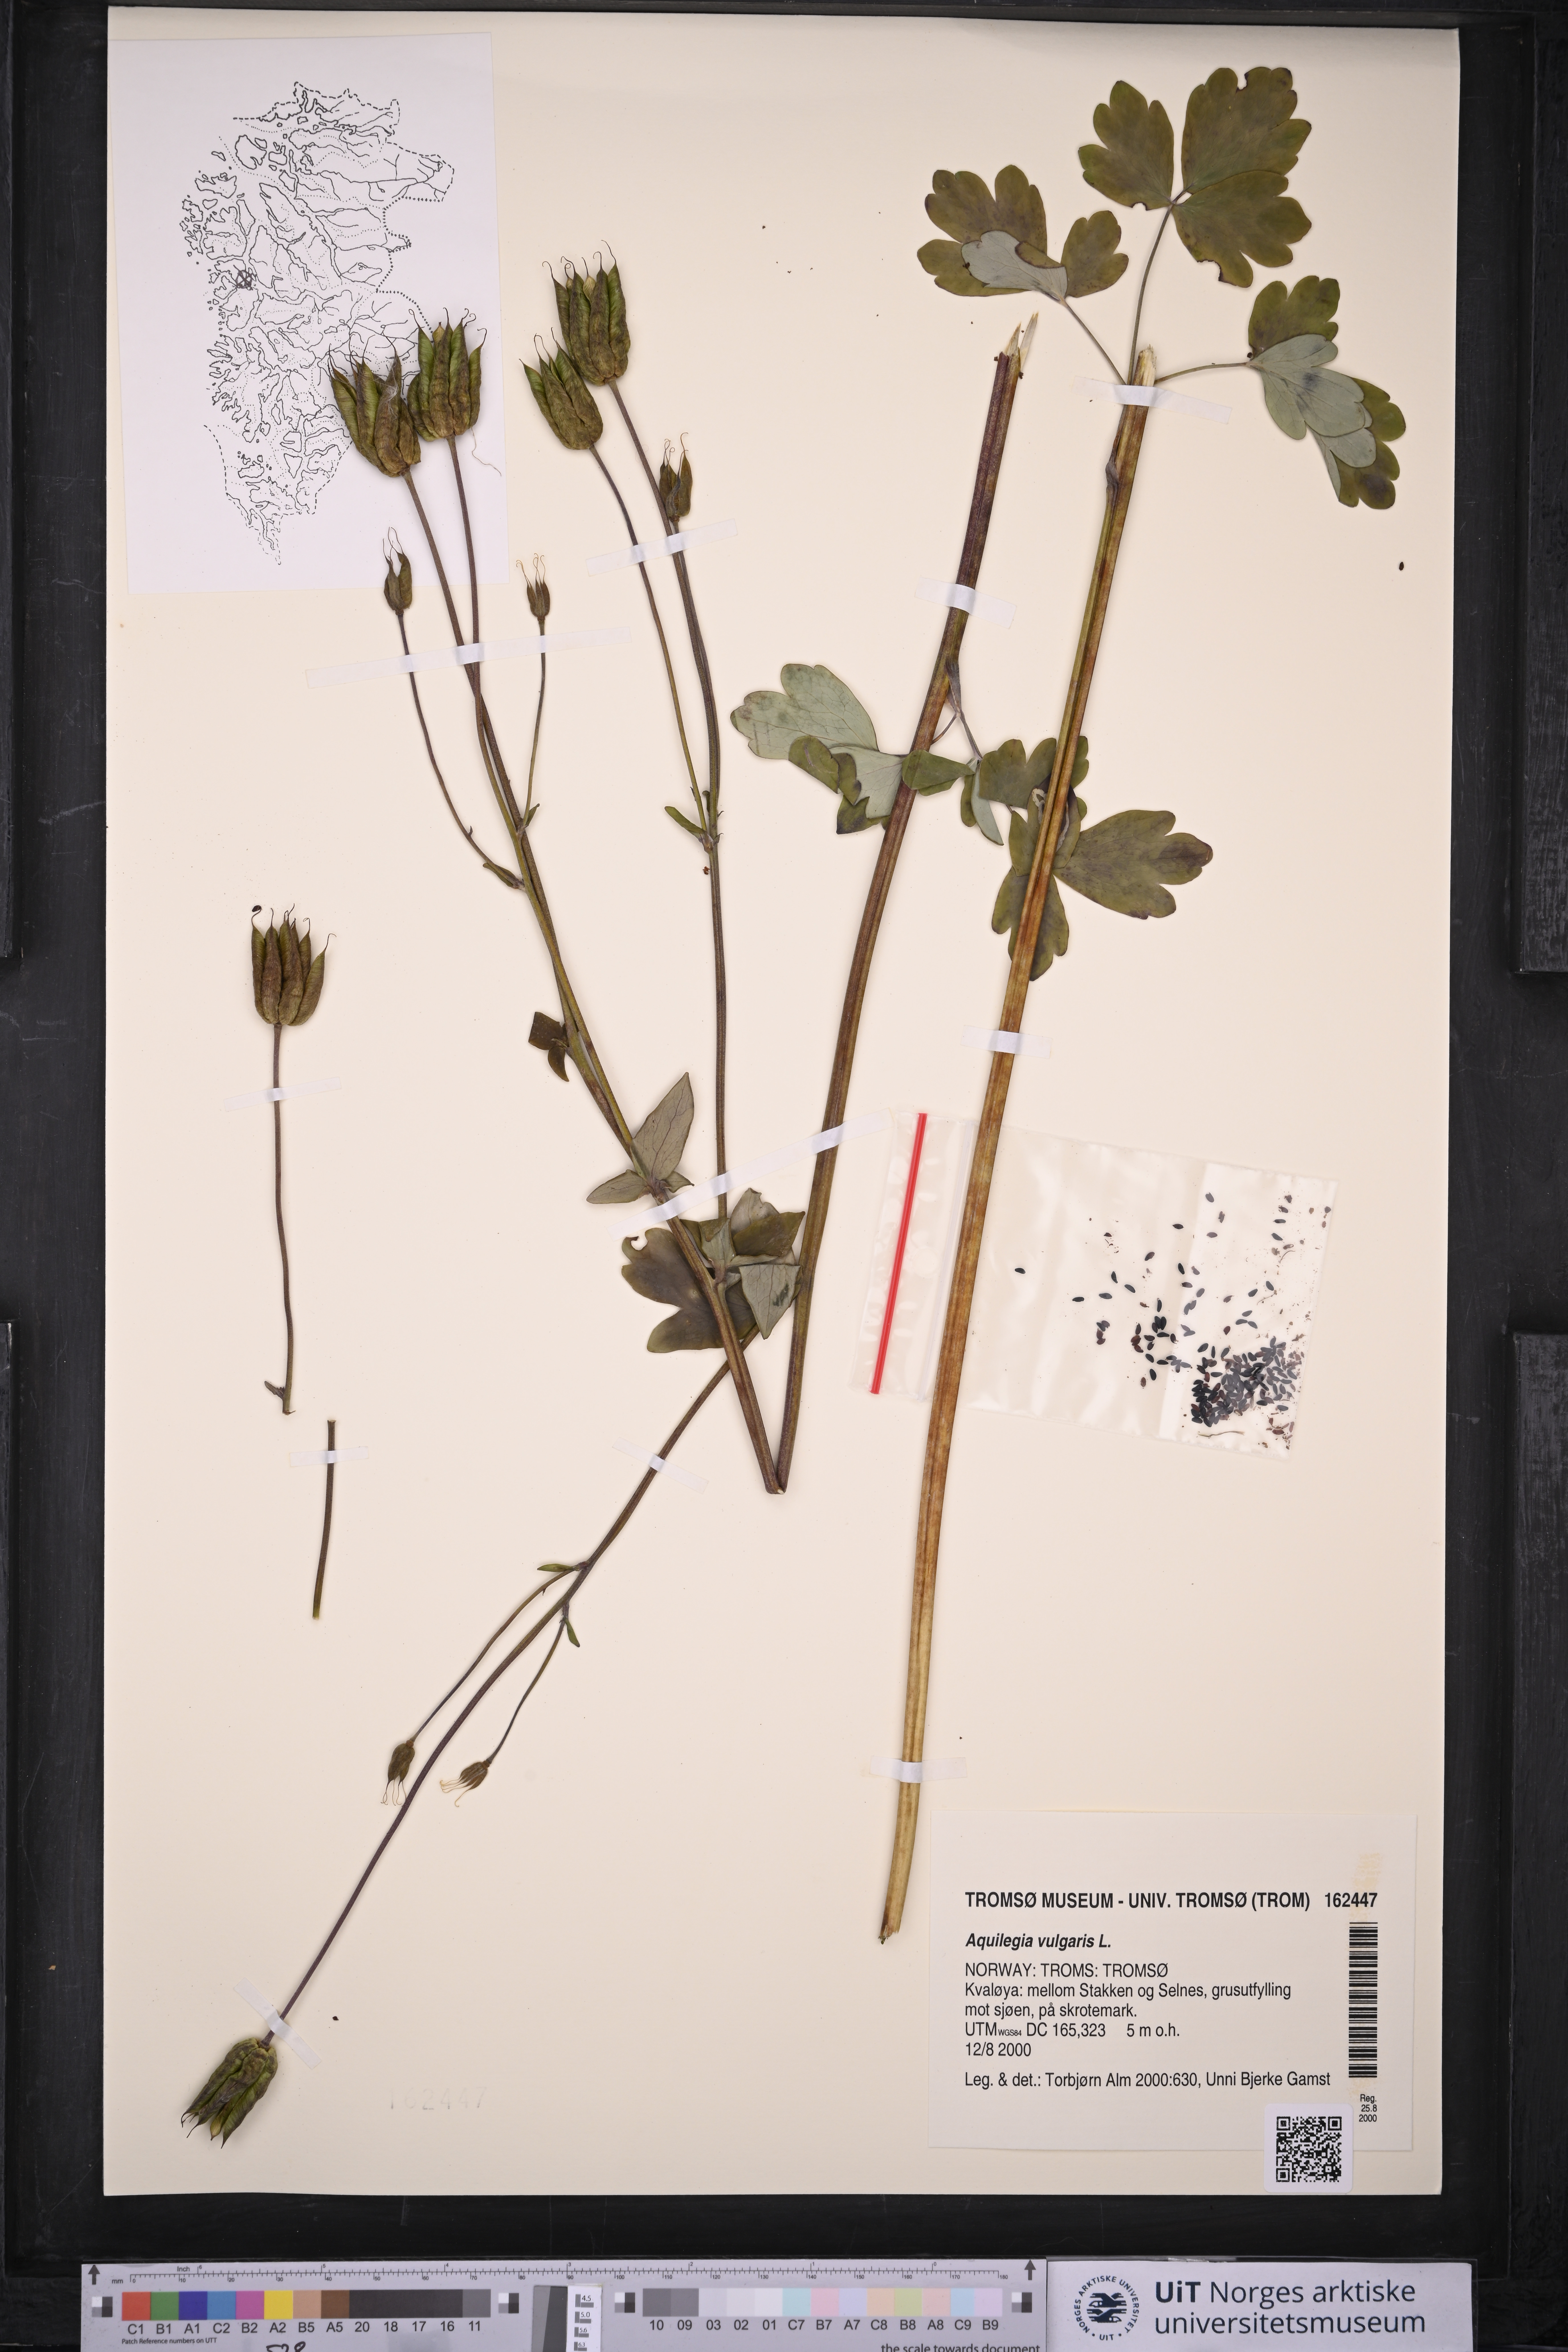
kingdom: Plantae
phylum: Tracheophyta
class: Magnoliopsida
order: Ranunculales
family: Ranunculaceae
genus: Aquilegia
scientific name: Aquilegia vulgaris
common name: Columbine
